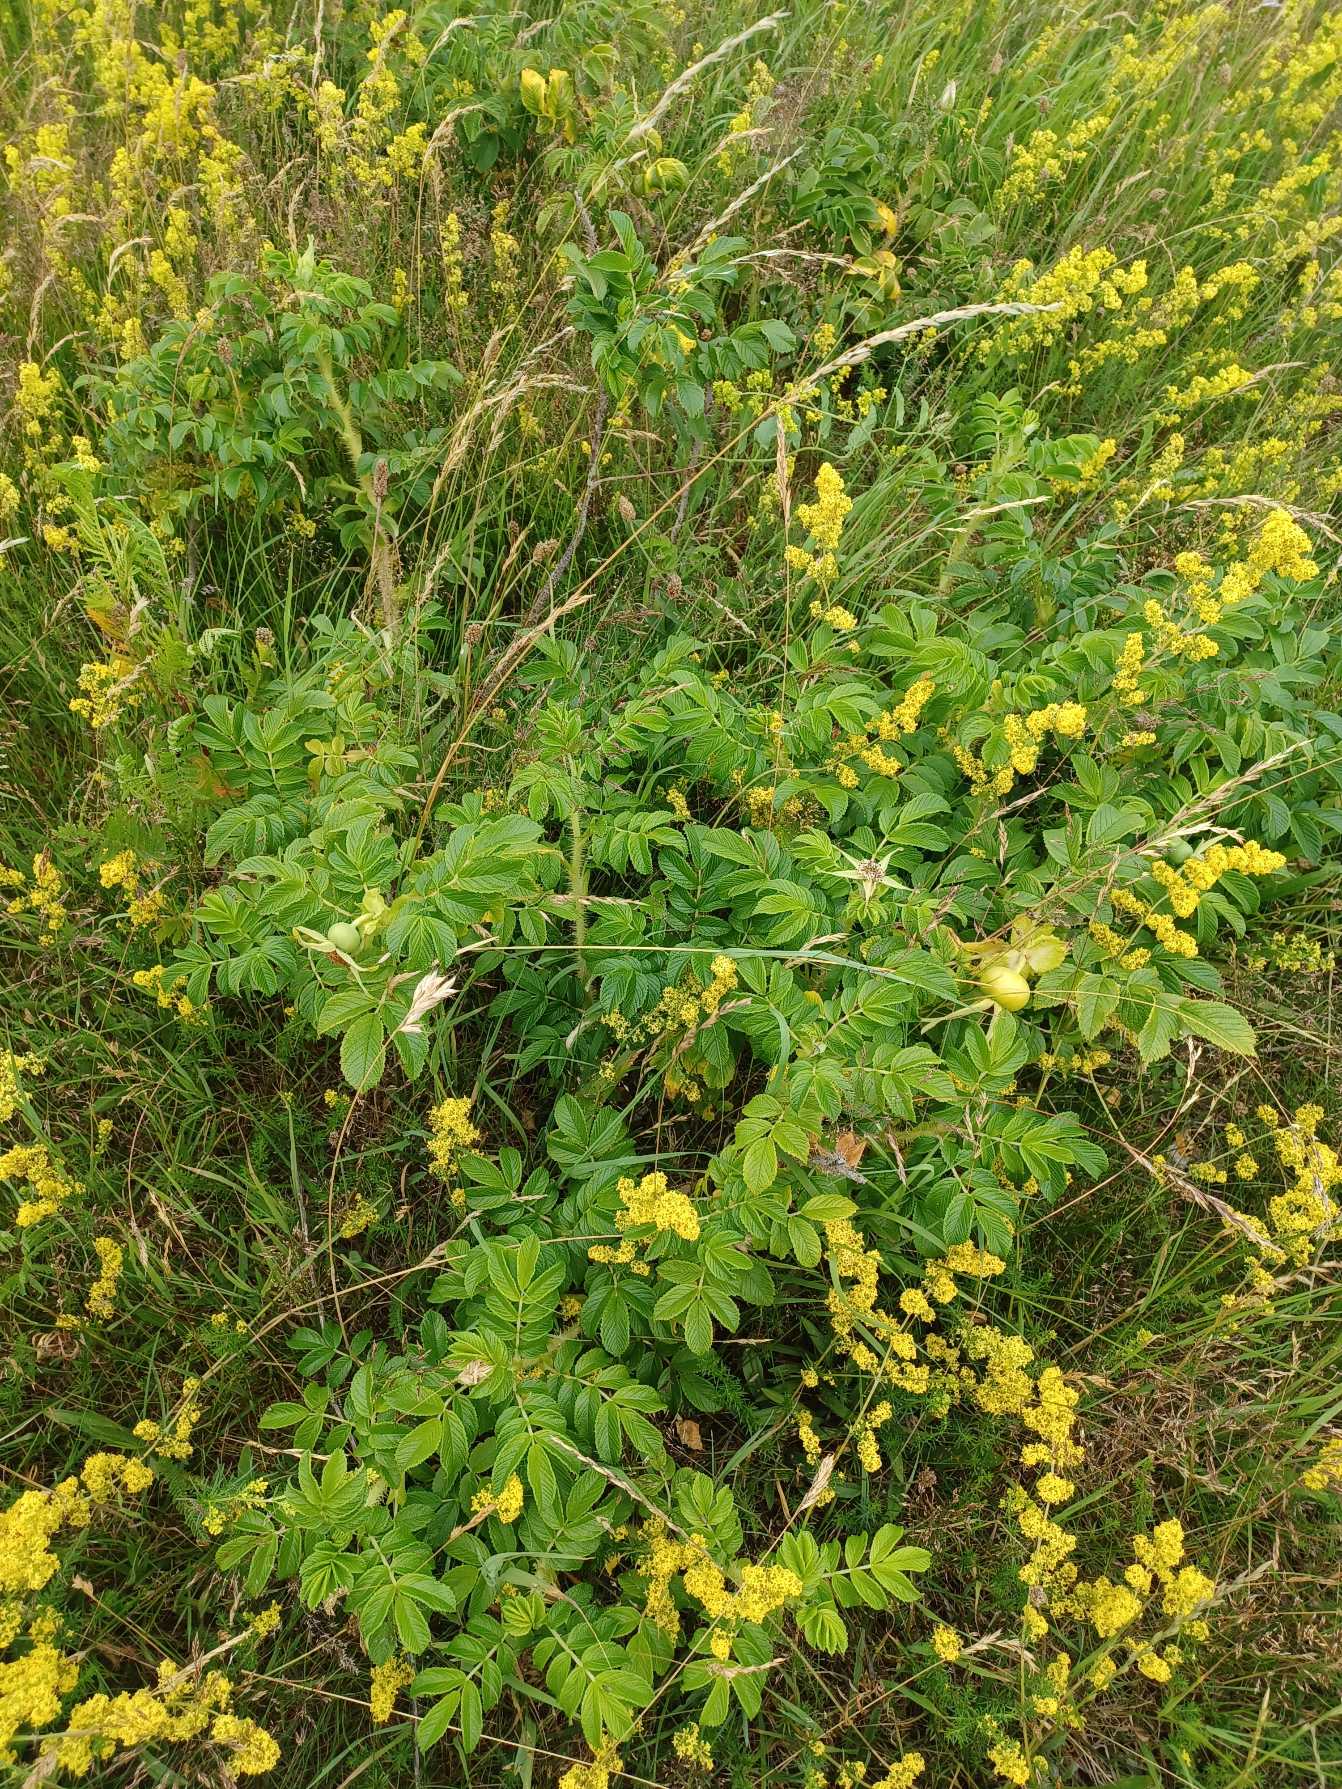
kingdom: Plantae
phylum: Tracheophyta
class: Magnoliopsida
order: Rosales
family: Rosaceae
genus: Rosa
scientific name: Rosa rugosa
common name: Rynket rose
